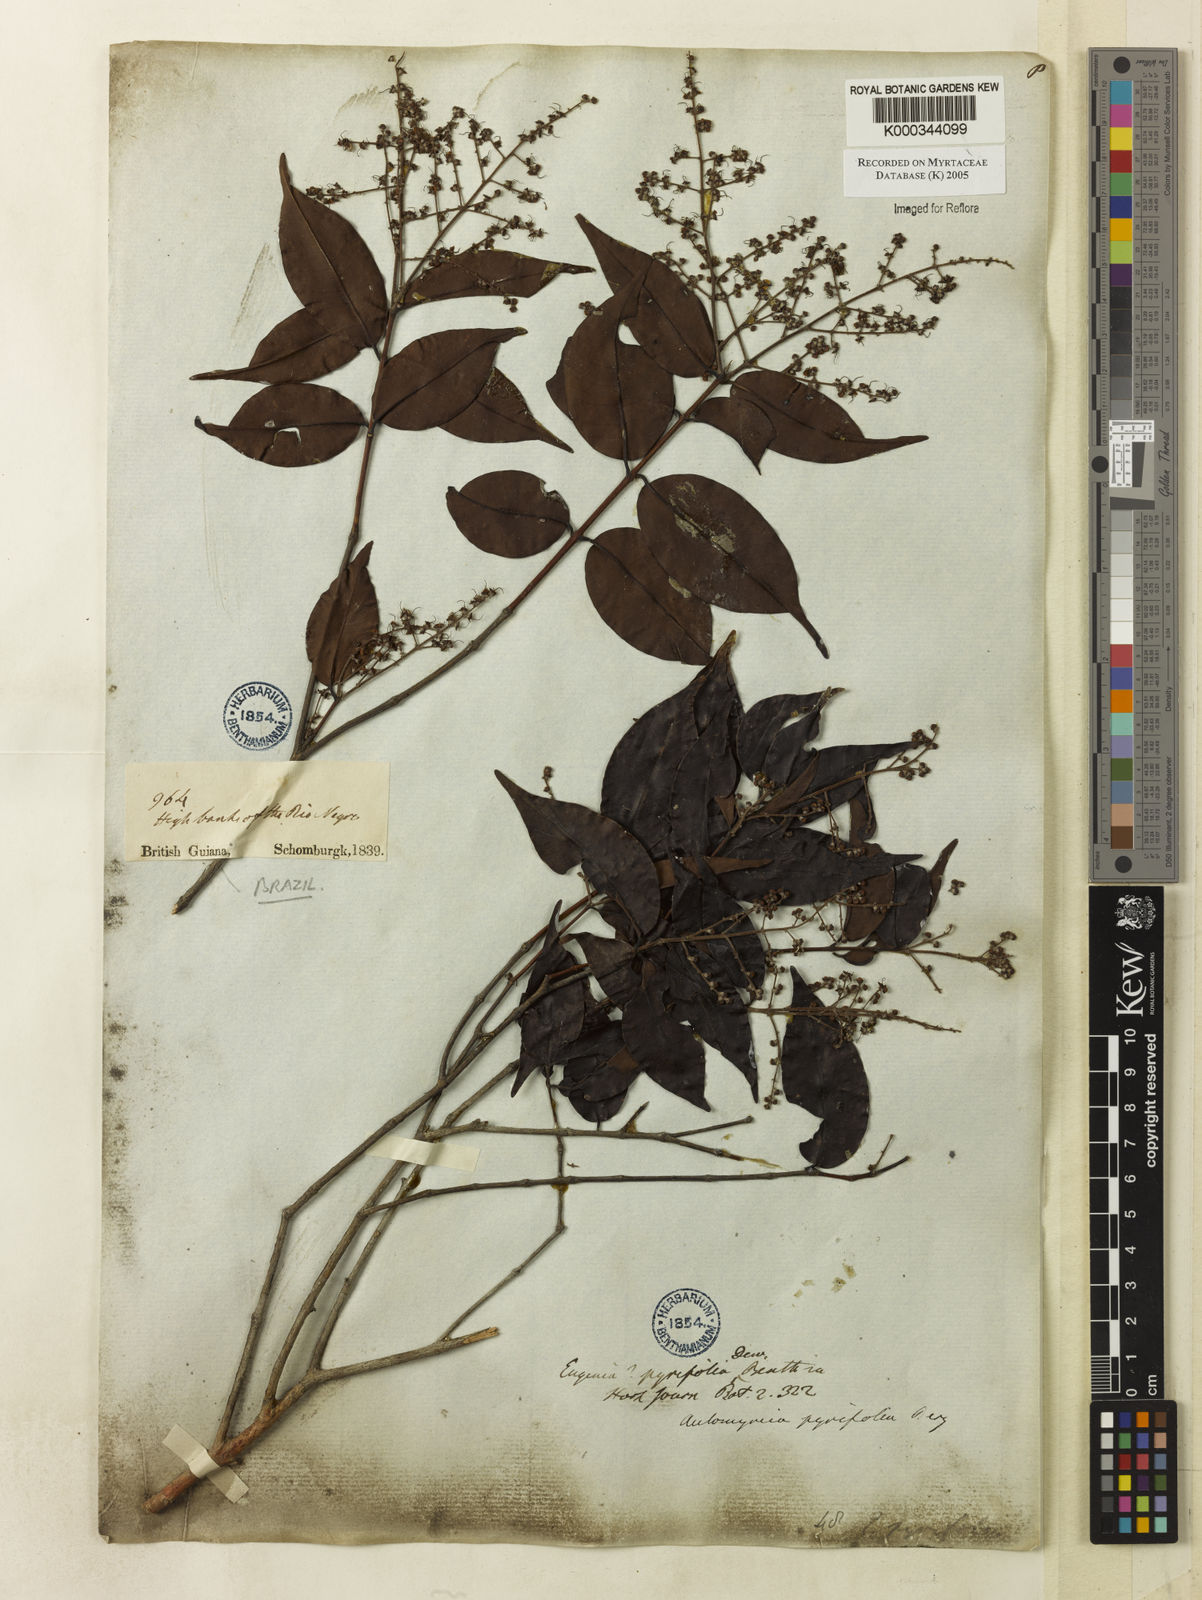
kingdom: Plantae
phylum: Tracheophyta
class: Magnoliopsida
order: Myrtales
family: Myrtaceae
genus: Myrcia
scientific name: Myrcia pyrifolia
